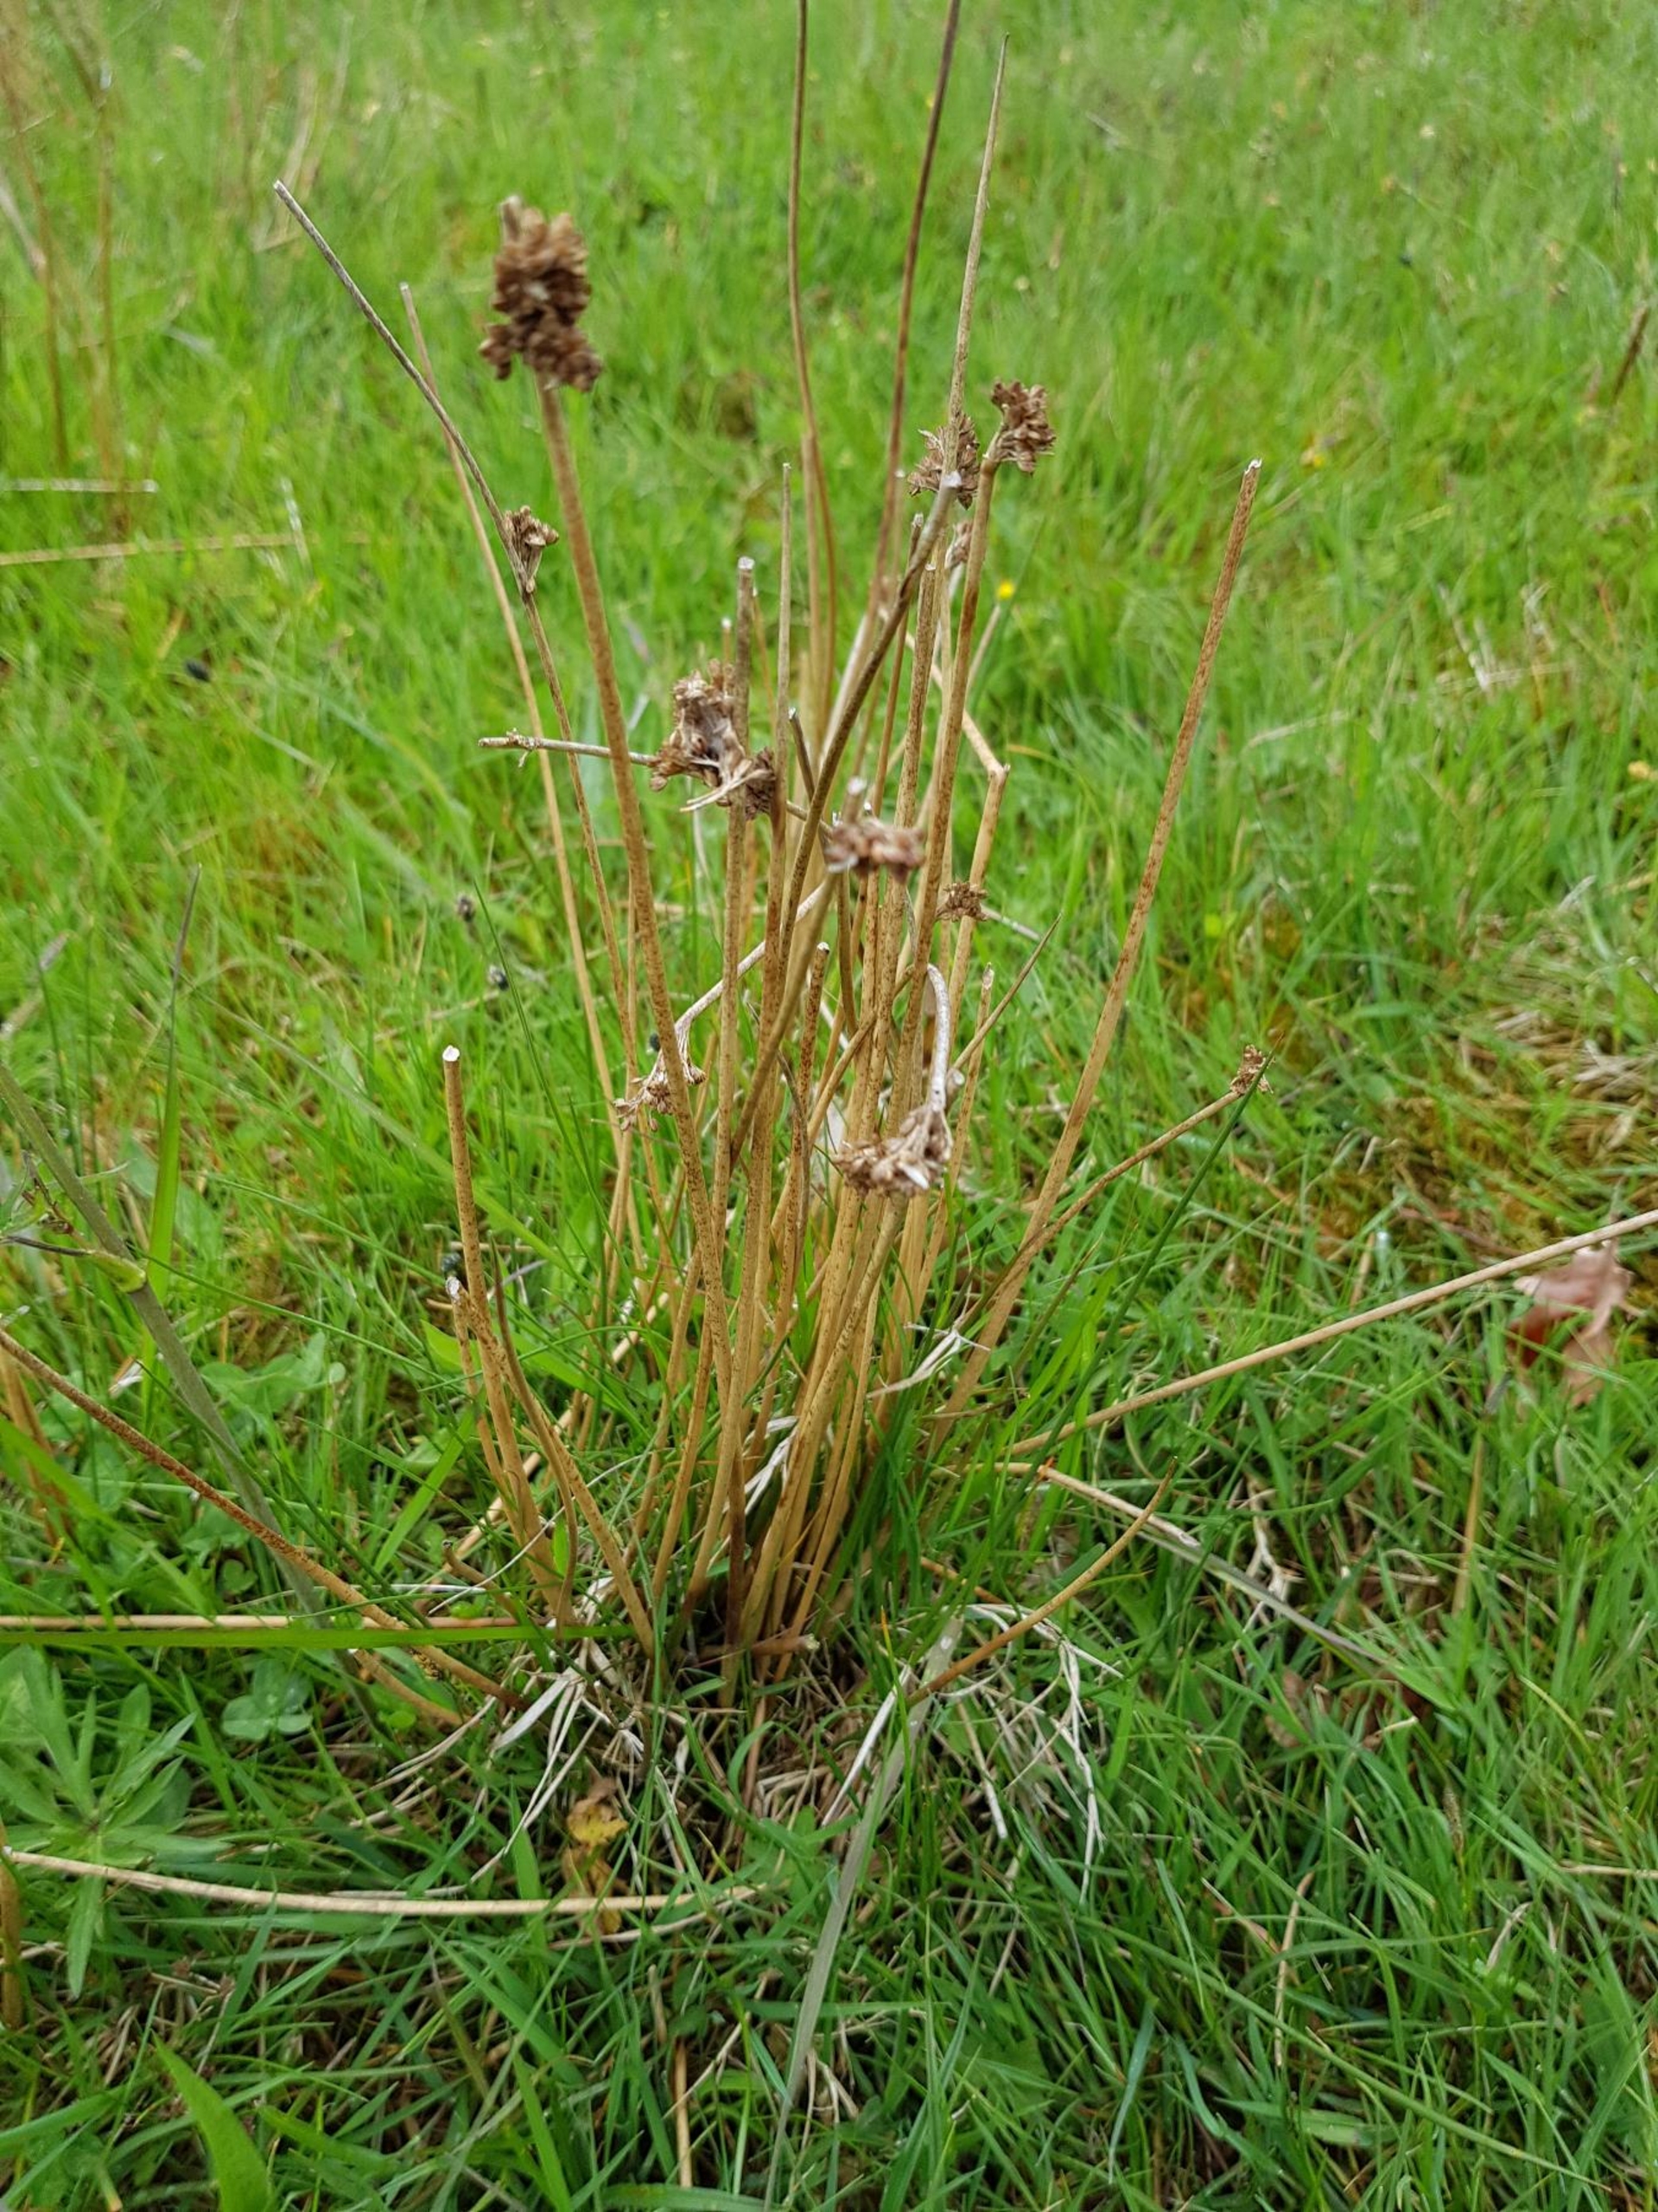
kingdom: Plantae
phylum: Tracheophyta
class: Liliopsida
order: Poales
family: Juncaceae
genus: Juncus
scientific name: Juncus effusus
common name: Lyse-siv
